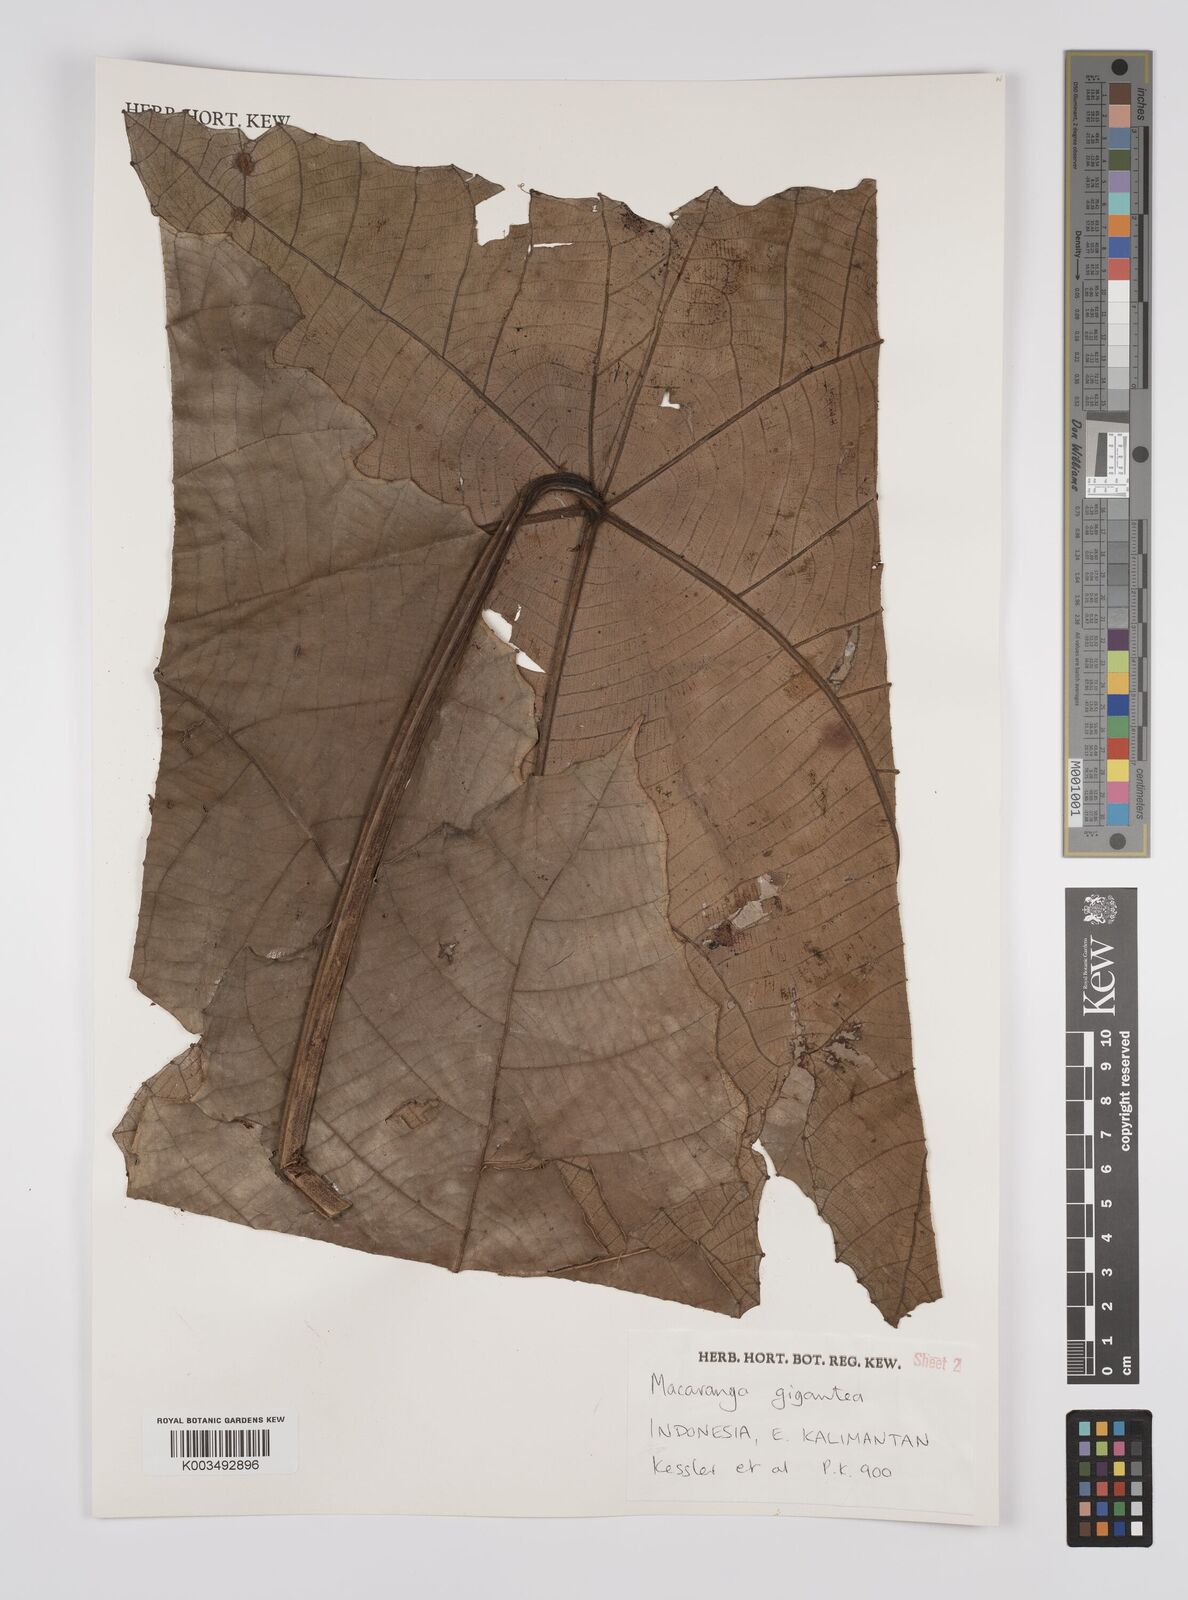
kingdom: Plantae
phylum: Tracheophyta
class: Magnoliopsida
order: Malpighiales
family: Euphorbiaceae
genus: Macaranga
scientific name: Macaranga gigantea
